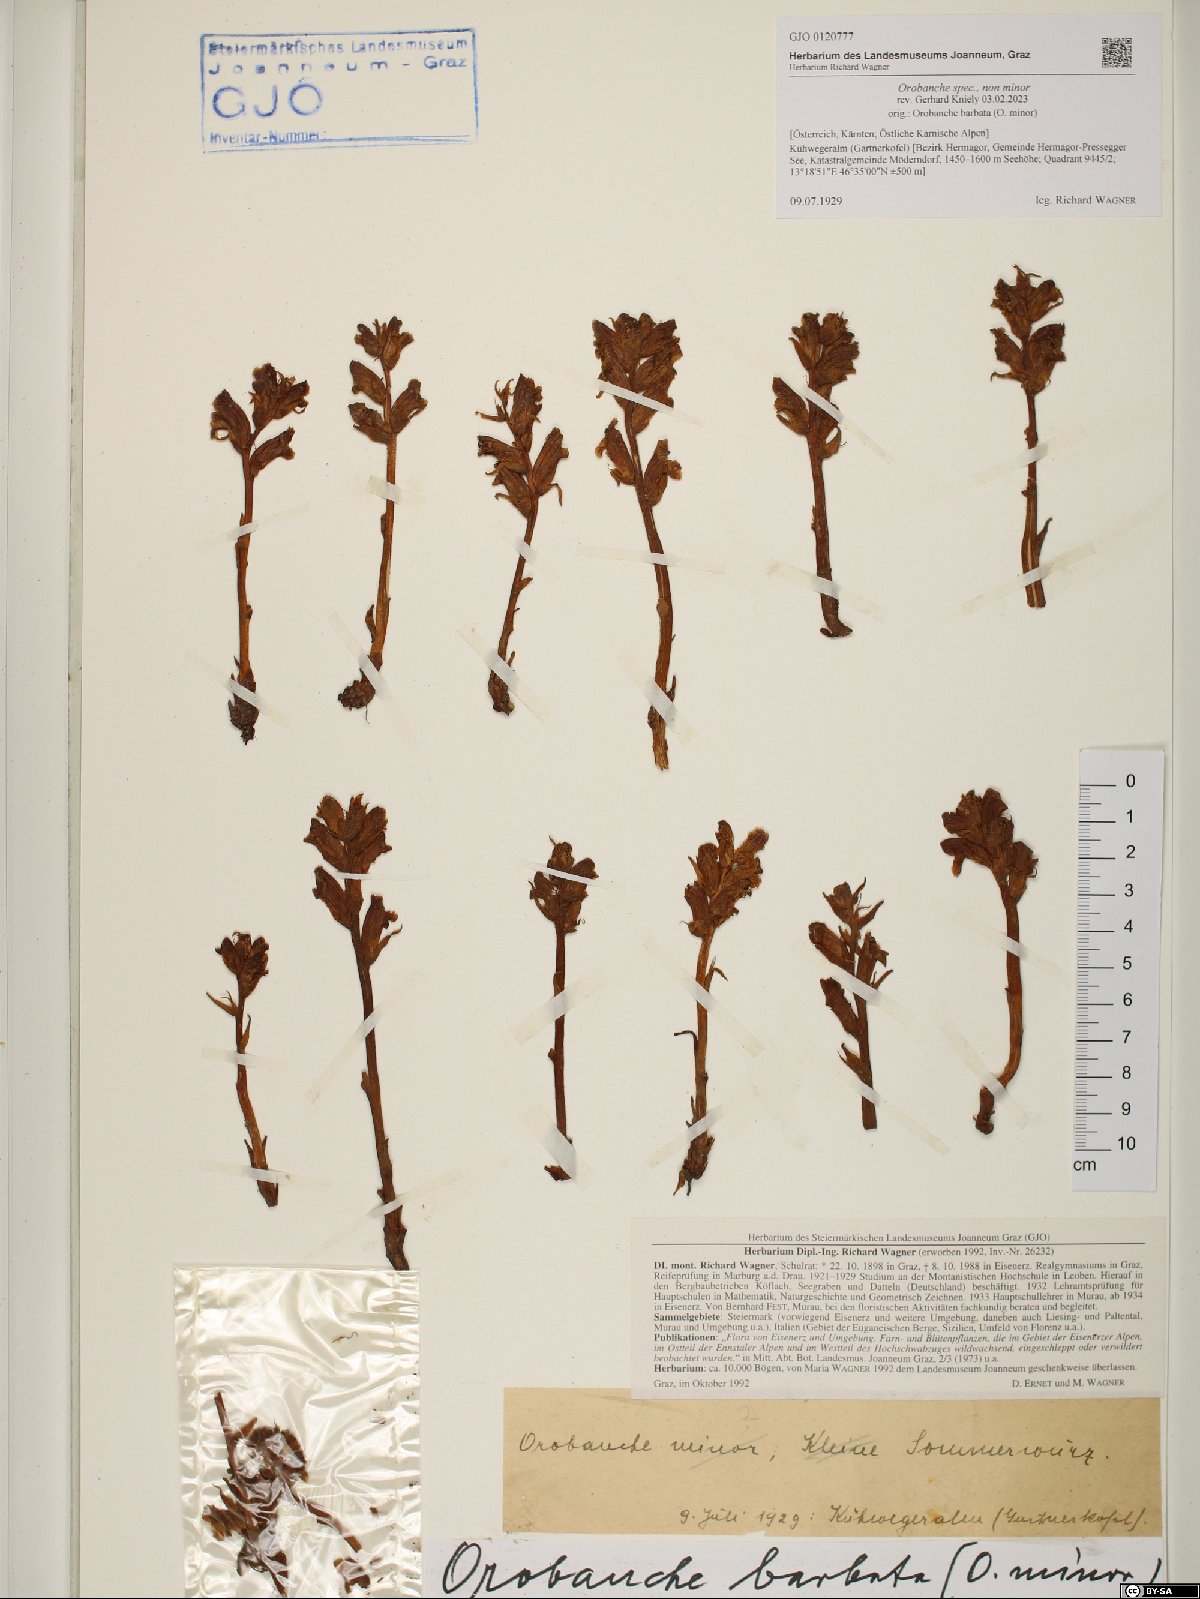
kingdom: Plantae
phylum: Tracheophyta
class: Magnoliopsida
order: Lamiales
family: Orobanchaceae
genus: Orobanche
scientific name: Orobanche
